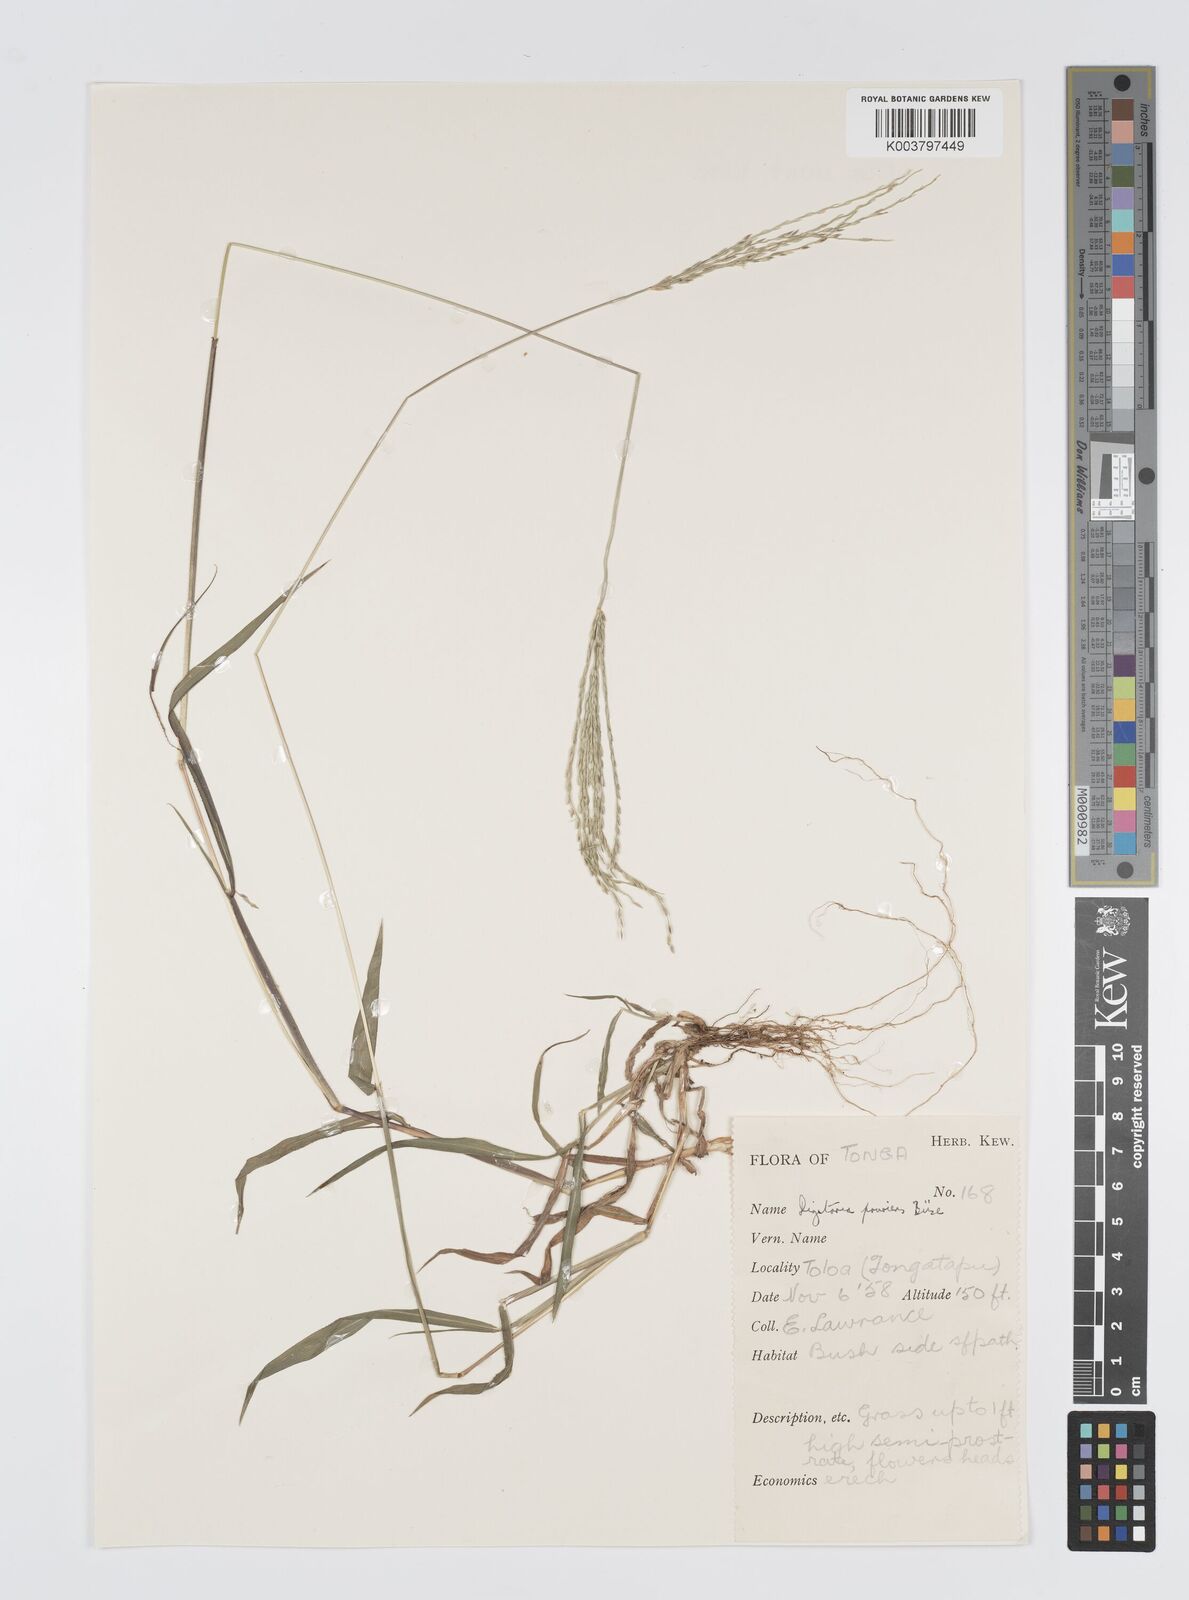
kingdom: Plantae
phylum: Tracheophyta
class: Liliopsida
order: Poales
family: Poaceae
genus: Digitaria
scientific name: Digitaria setigera
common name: East indian crabgrass
